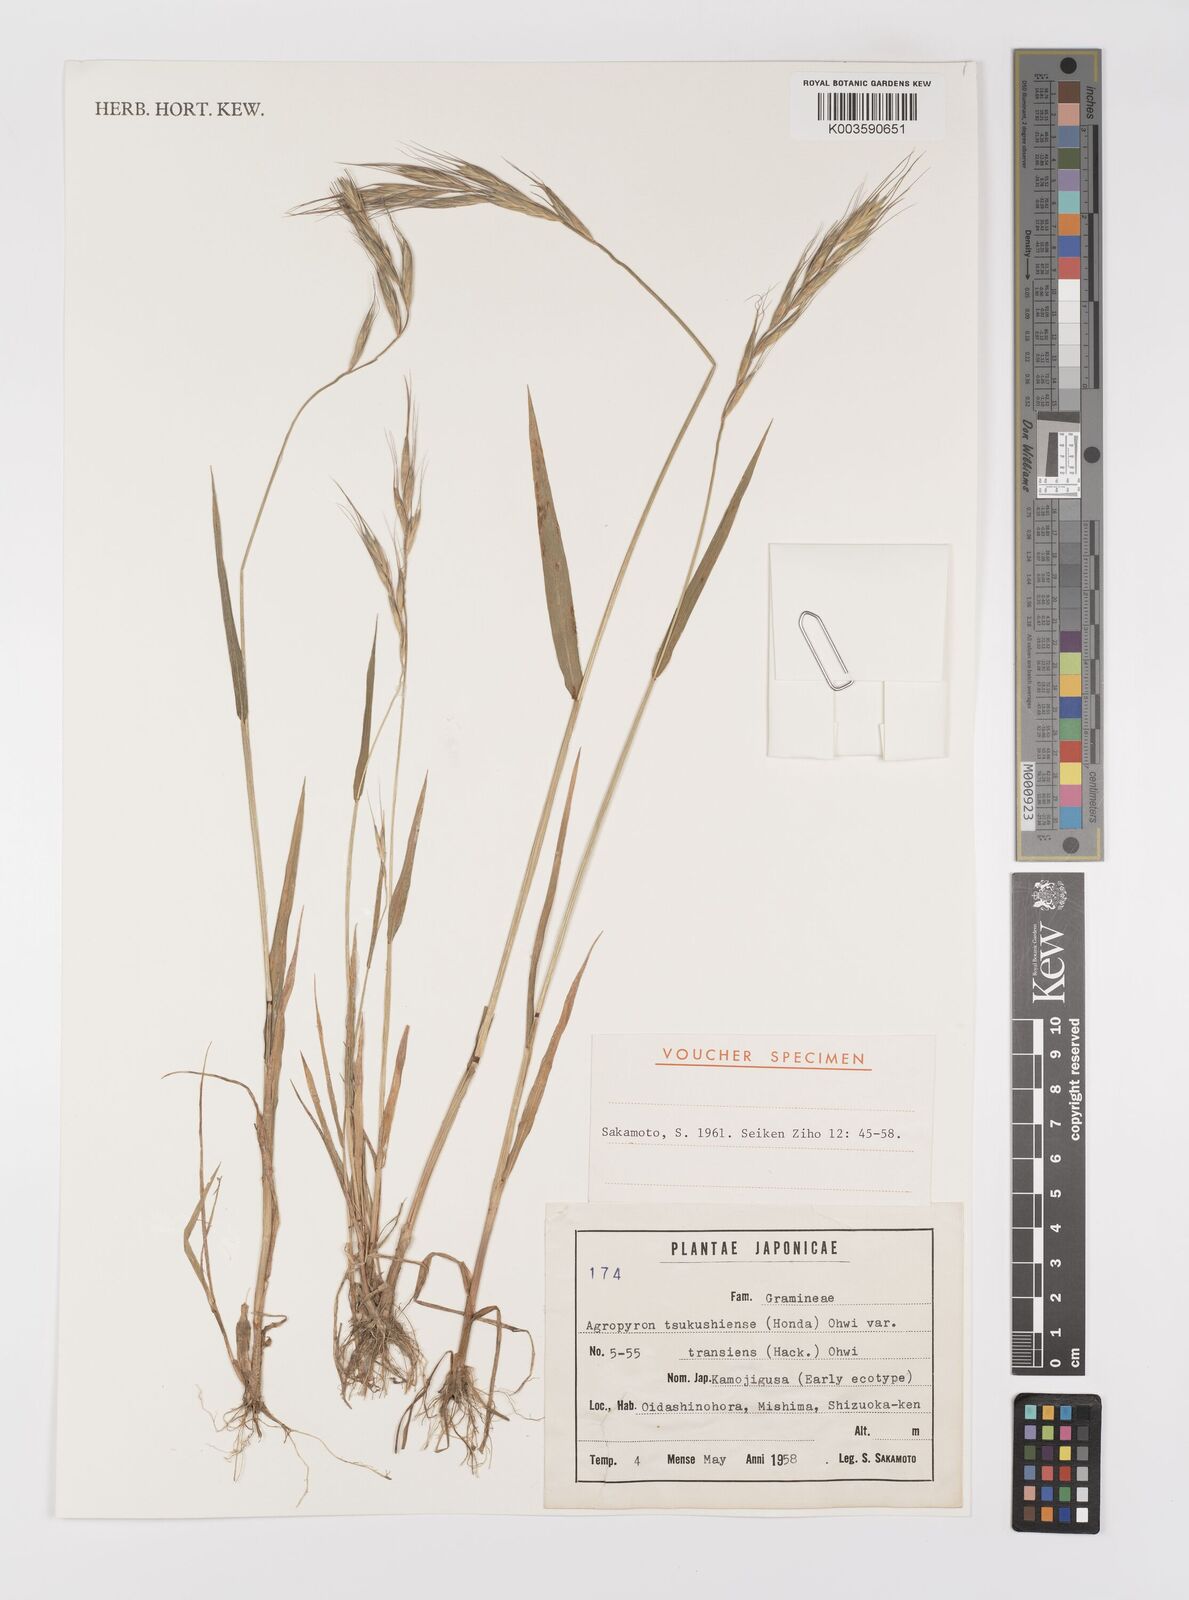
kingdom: Plantae
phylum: Tracheophyta
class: Liliopsida
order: Poales
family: Poaceae
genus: Elymus
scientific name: Elymus tsukushiensis
